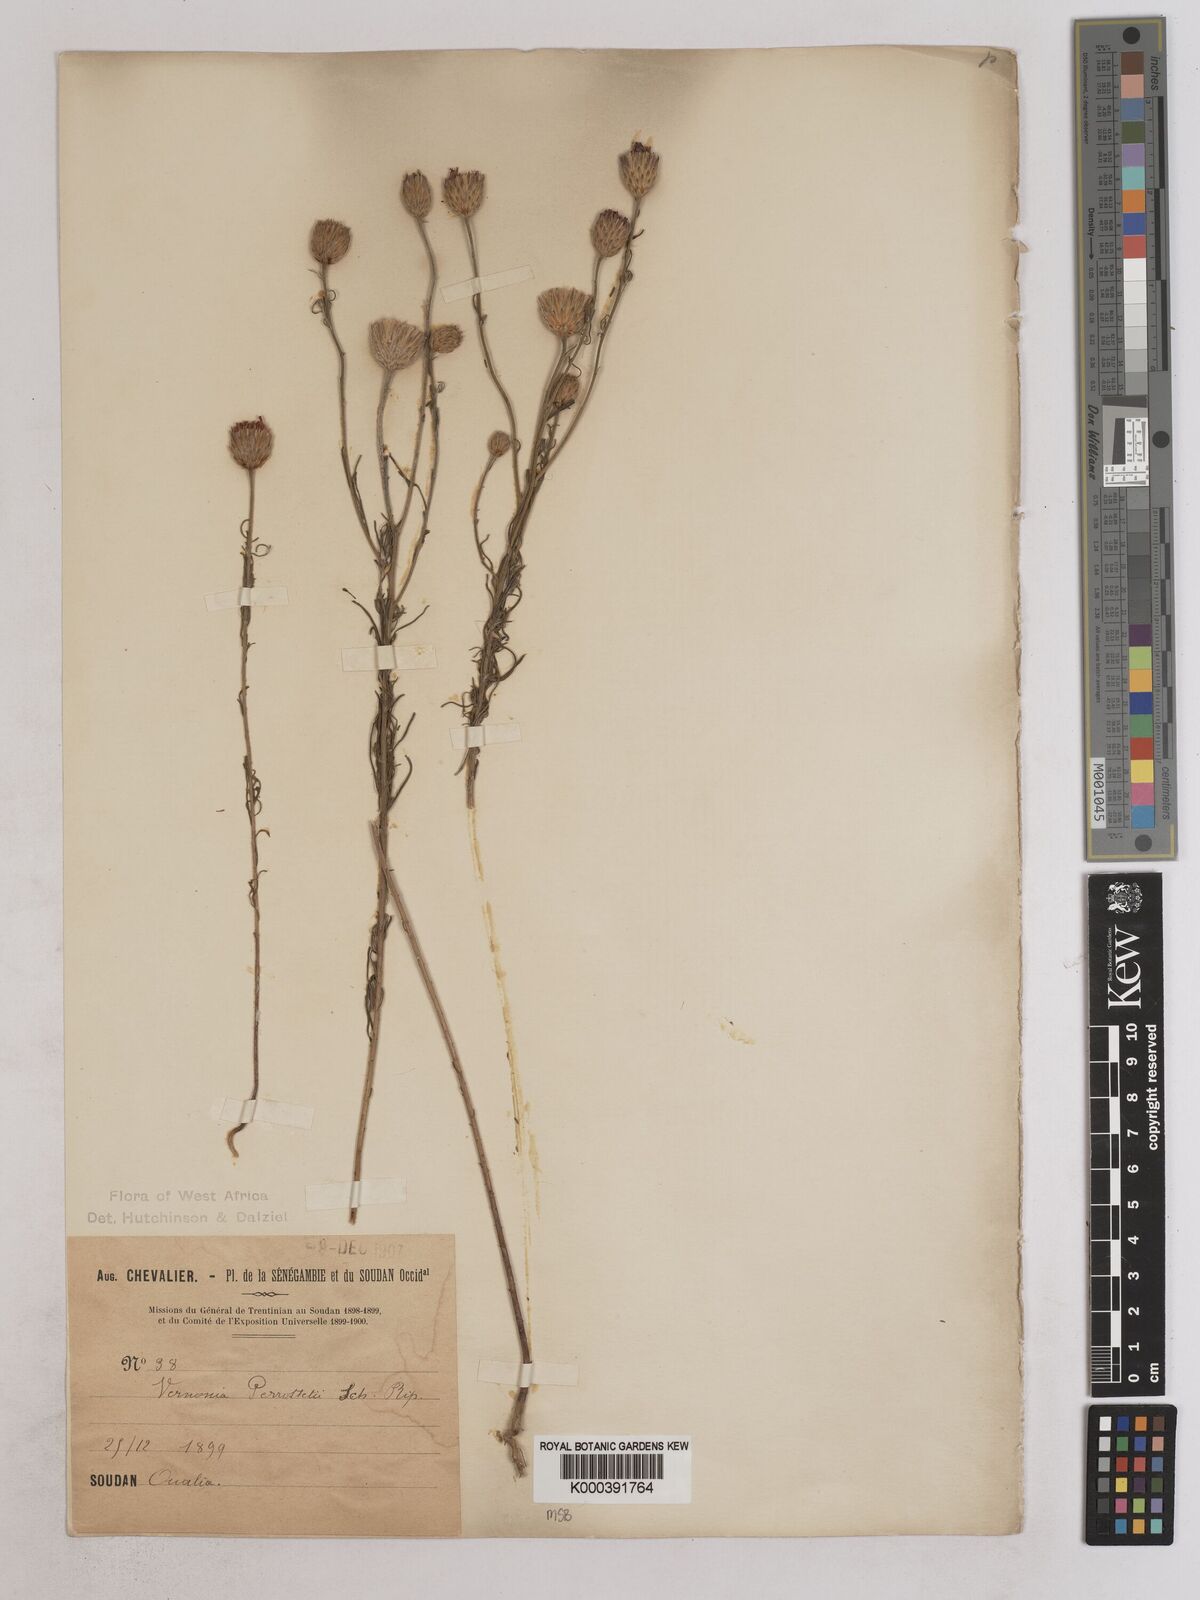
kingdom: Plantae
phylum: Tracheophyta
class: Magnoliopsida
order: Asterales
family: Asteraceae
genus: Crystallopollen
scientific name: Crystallopollen serratuloides
